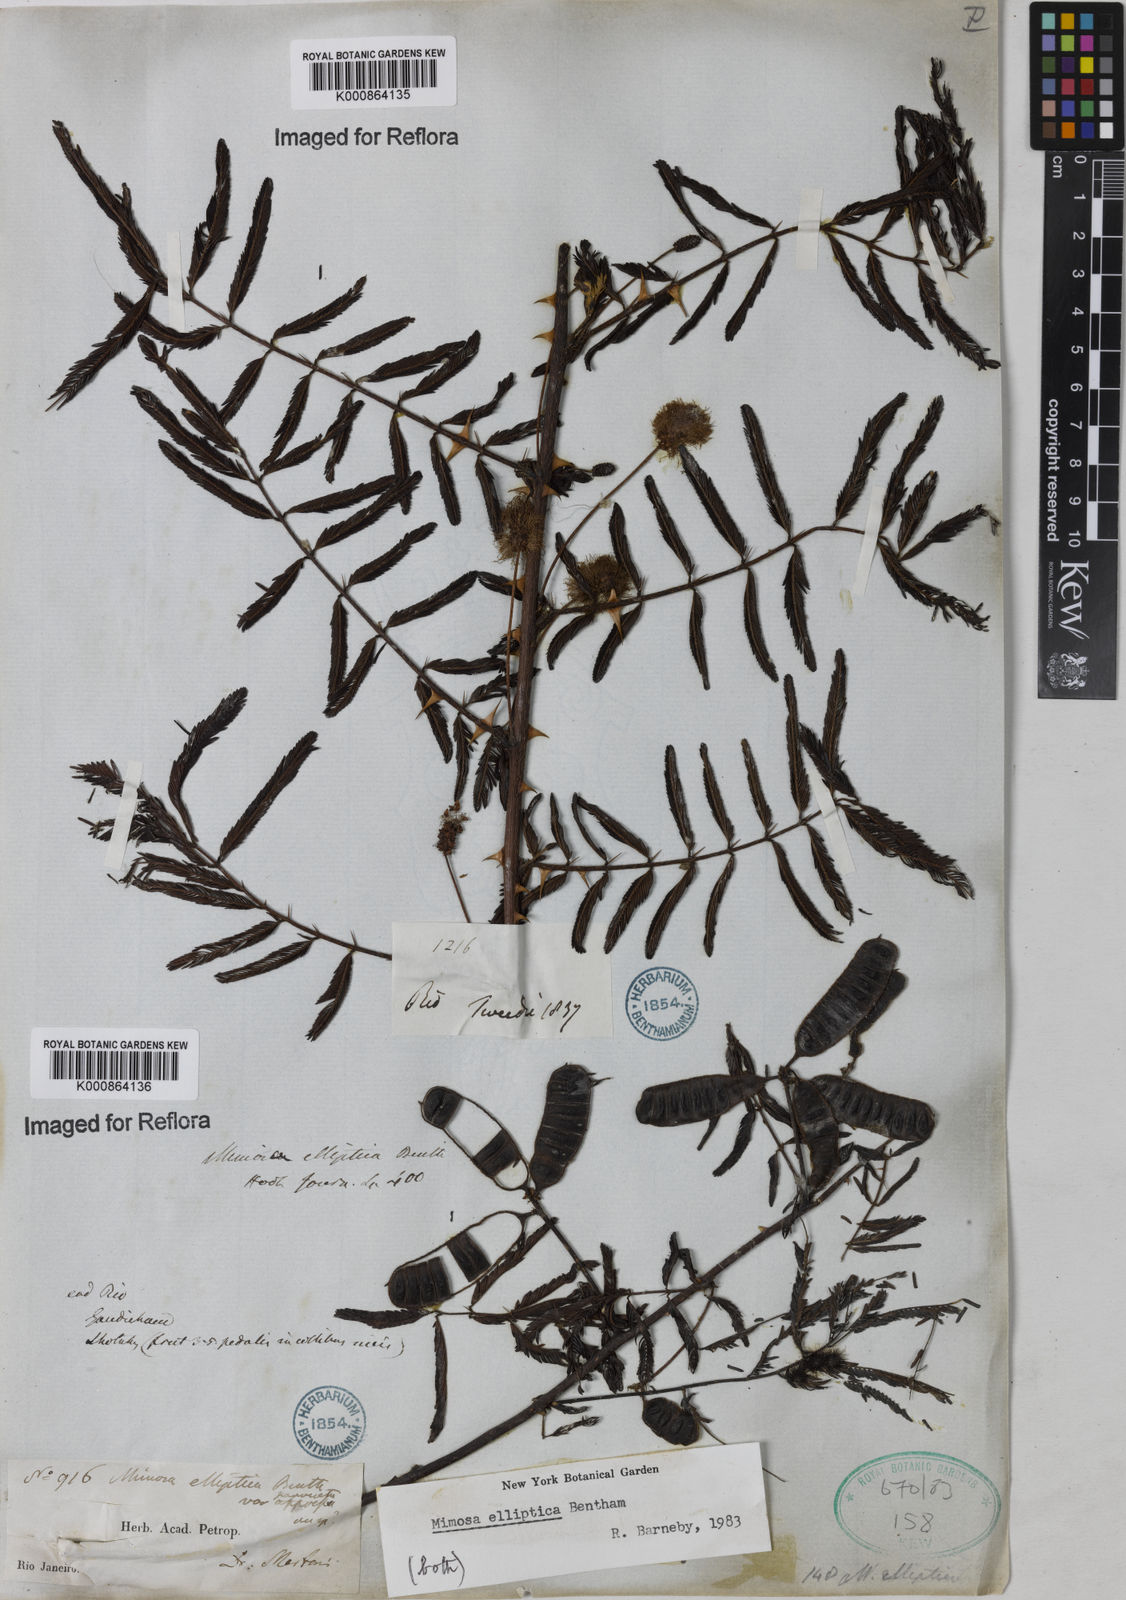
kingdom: Plantae
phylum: Tracheophyta
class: Magnoliopsida
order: Fabales
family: Fabaceae
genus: Mimosa
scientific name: Mimosa elliptica
